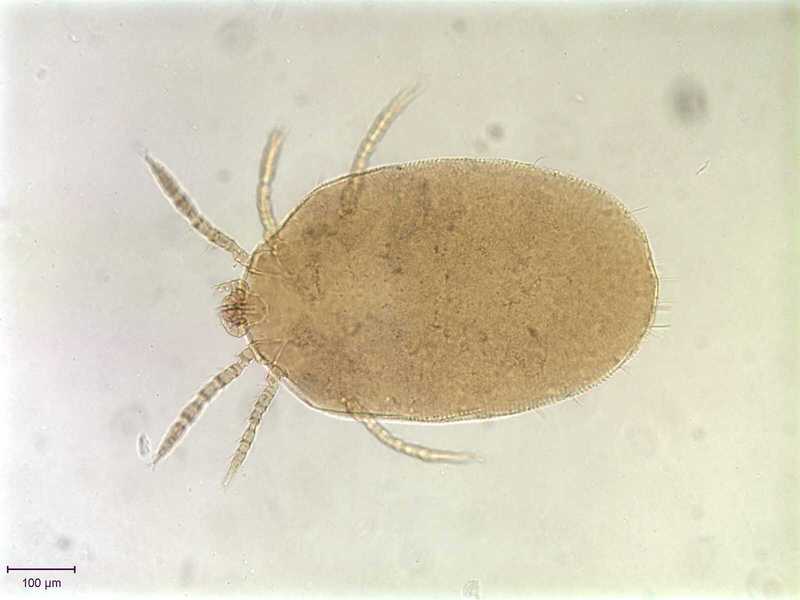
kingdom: Animalia
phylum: Arthropoda
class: Arachnida
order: Trombidiformes
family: Trombiculidae
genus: Trombicula
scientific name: Trombicula
